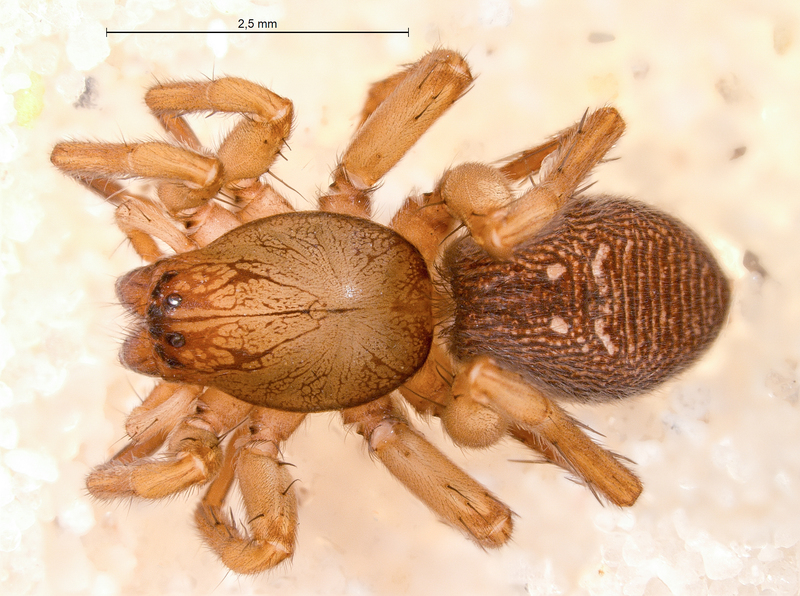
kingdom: Animalia
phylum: Arthropoda
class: Arachnida
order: Araneae
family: Clubionidae
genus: Clubiona
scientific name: Clubiona kulczynskii
